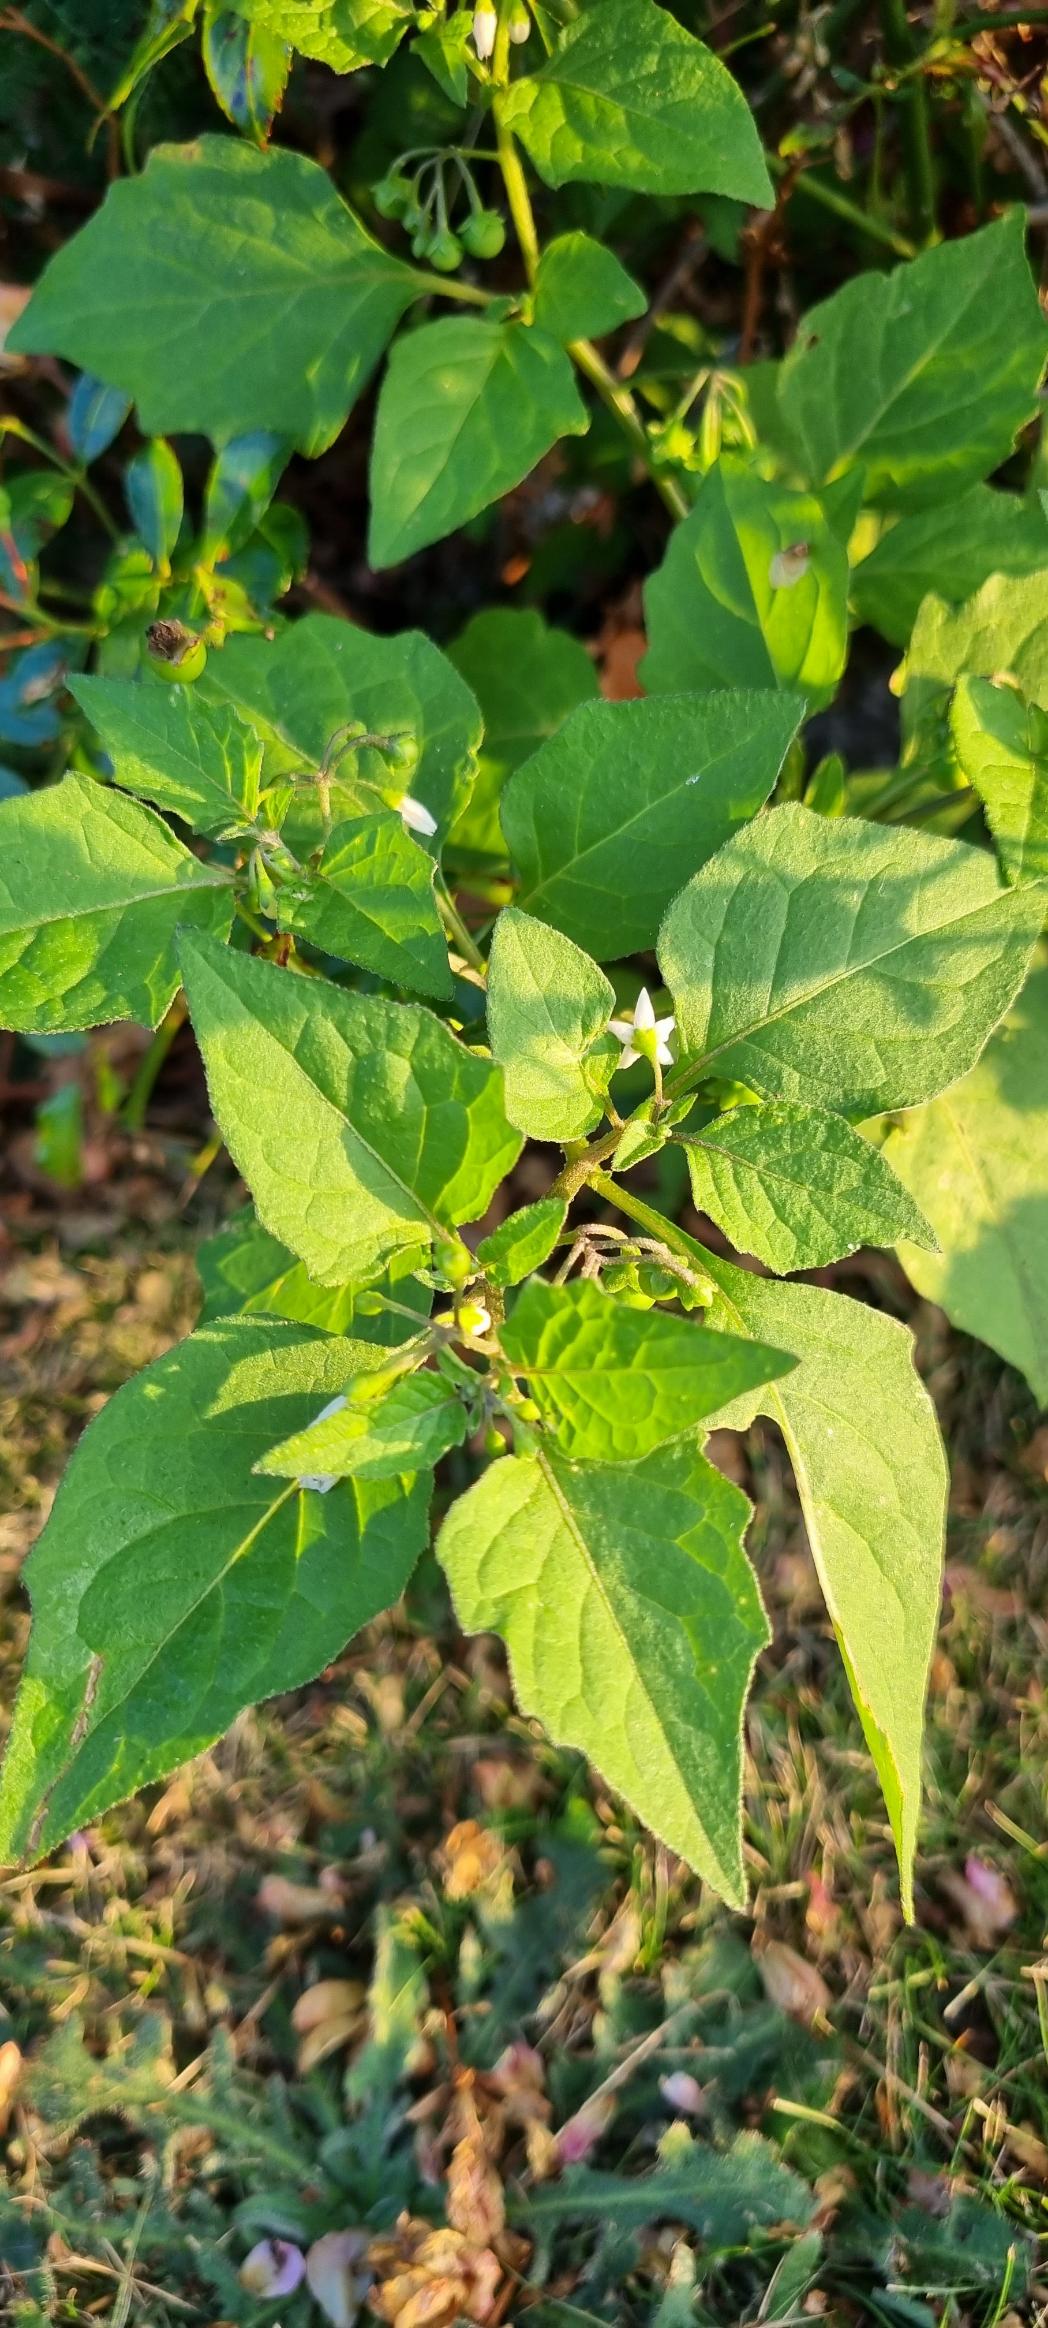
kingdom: Plantae
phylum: Tracheophyta
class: Magnoliopsida
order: Solanales
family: Solanaceae
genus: Solanum
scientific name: Solanum nigrum
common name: Sort natskygge
